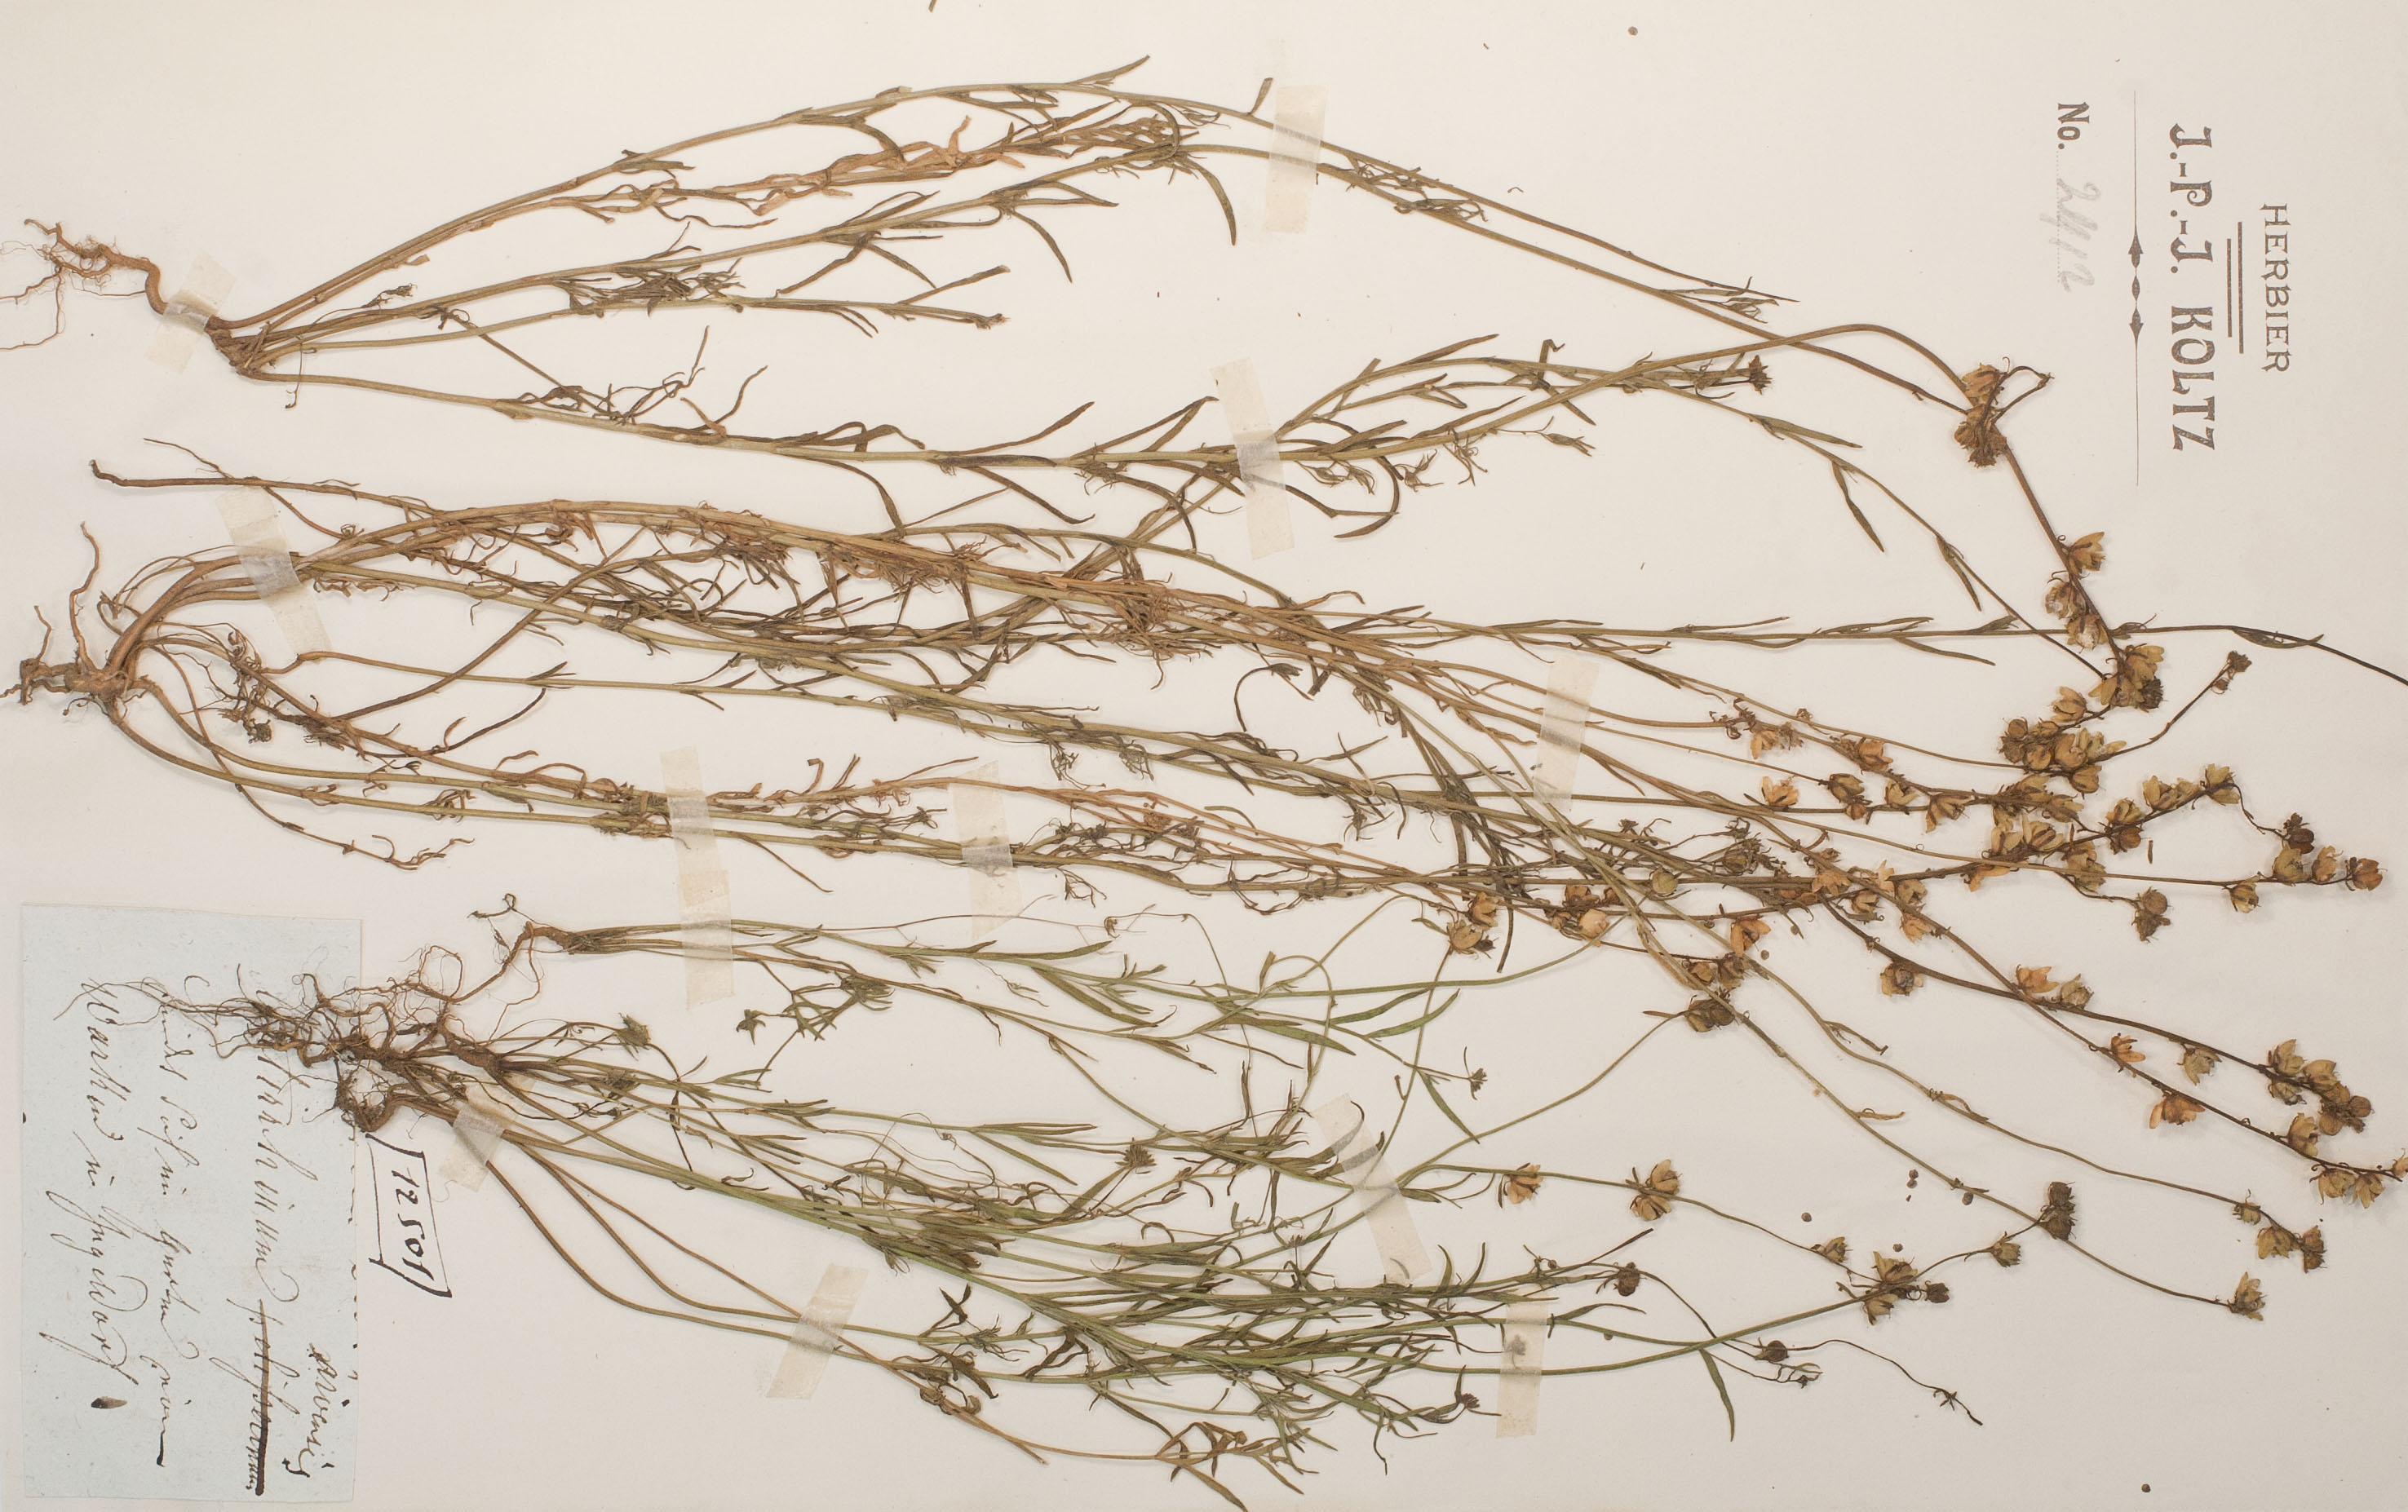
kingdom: Plantae
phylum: Tracheophyta
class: Magnoliopsida
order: Lamiales
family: Plantaginaceae
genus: Linaria
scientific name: Linaria arvensis
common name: Corn toadflax
